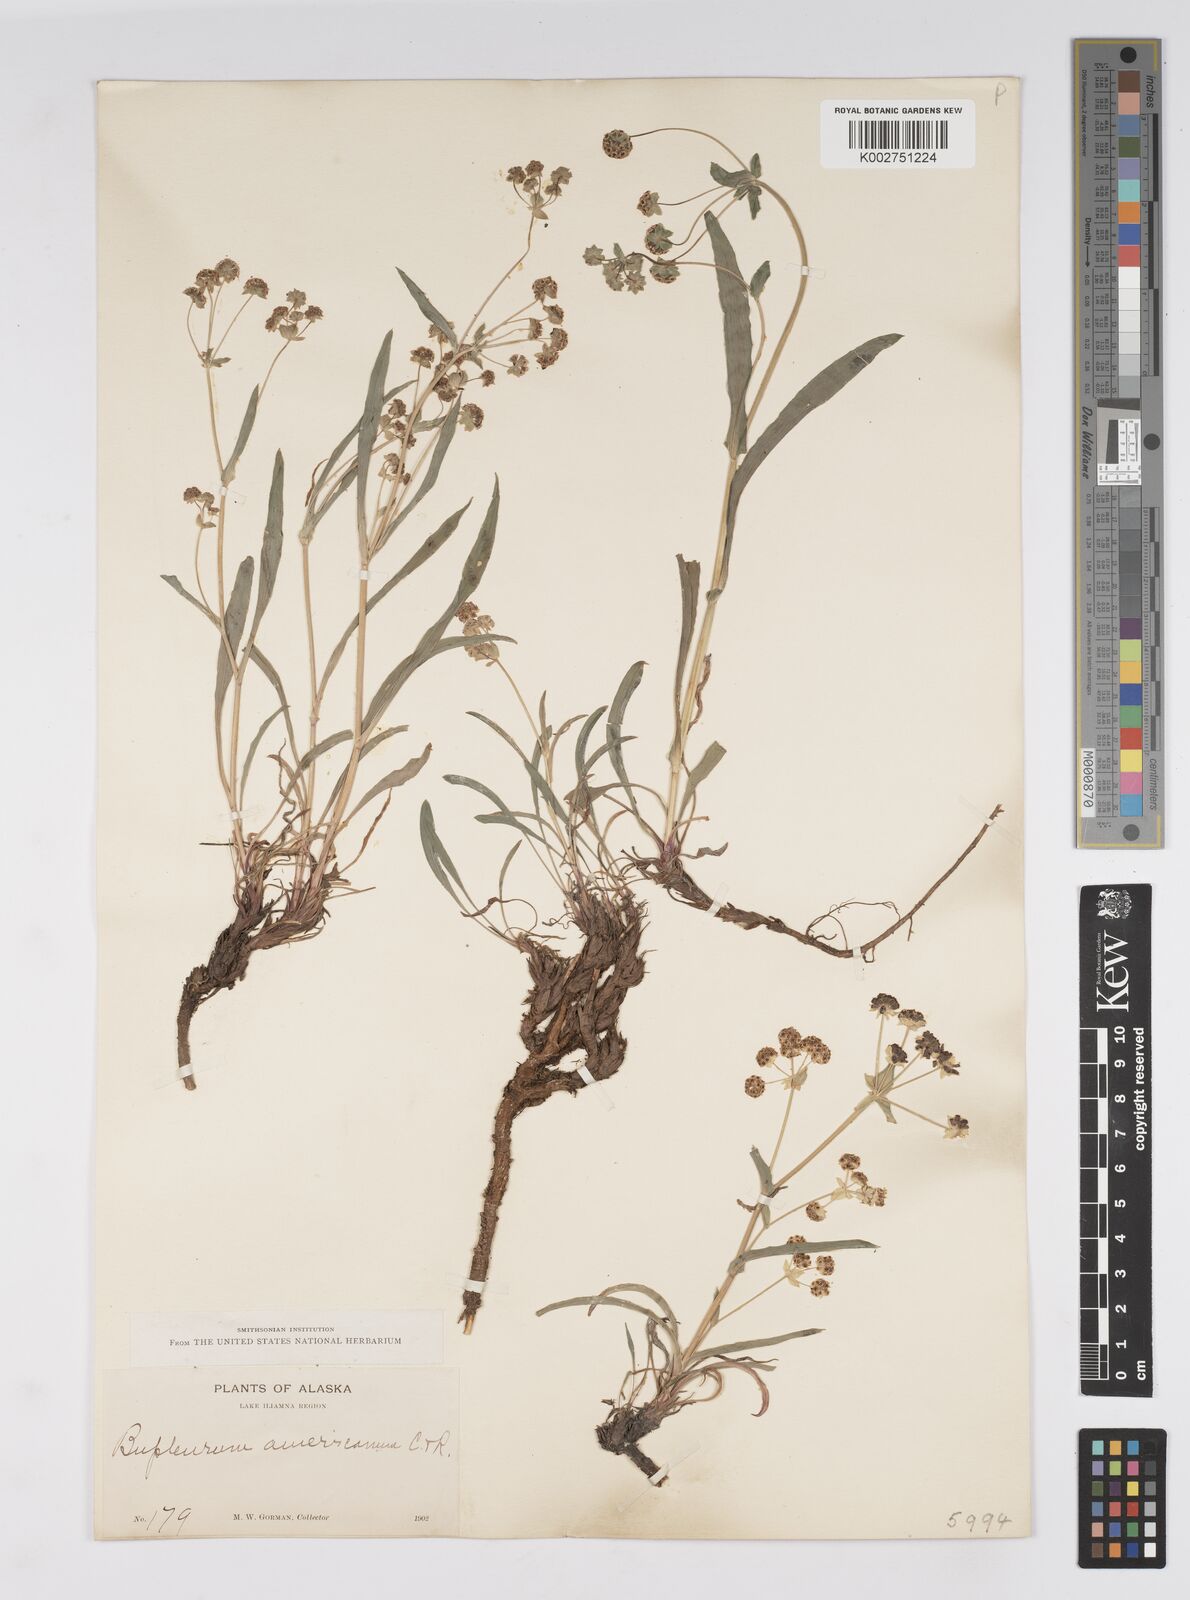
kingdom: Plantae
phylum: Tracheophyta
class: Magnoliopsida
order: Apiales
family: Apiaceae
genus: Bupleurum
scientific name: Bupleurum americanum
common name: American thoroughwax
